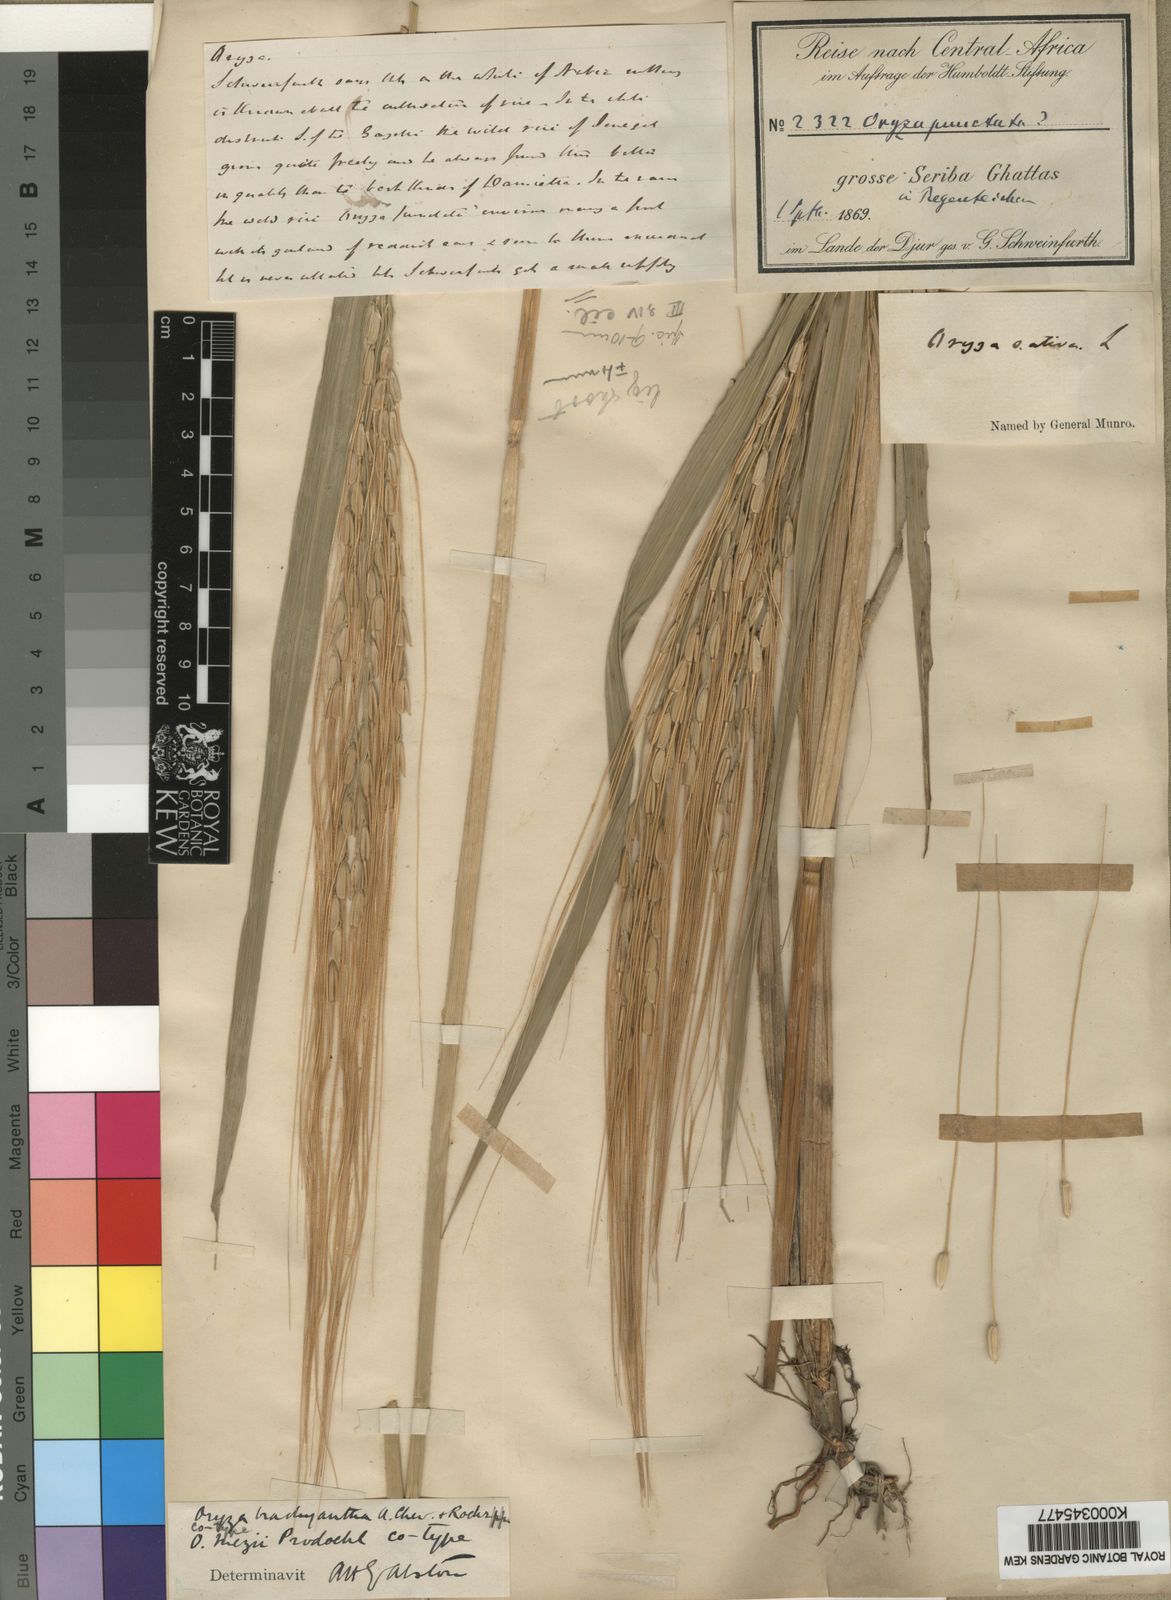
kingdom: Plantae
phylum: Tracheophyta
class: Liliopsida
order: Poales
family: Poaceae
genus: Oryza
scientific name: Oryza punctata
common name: Red rice
